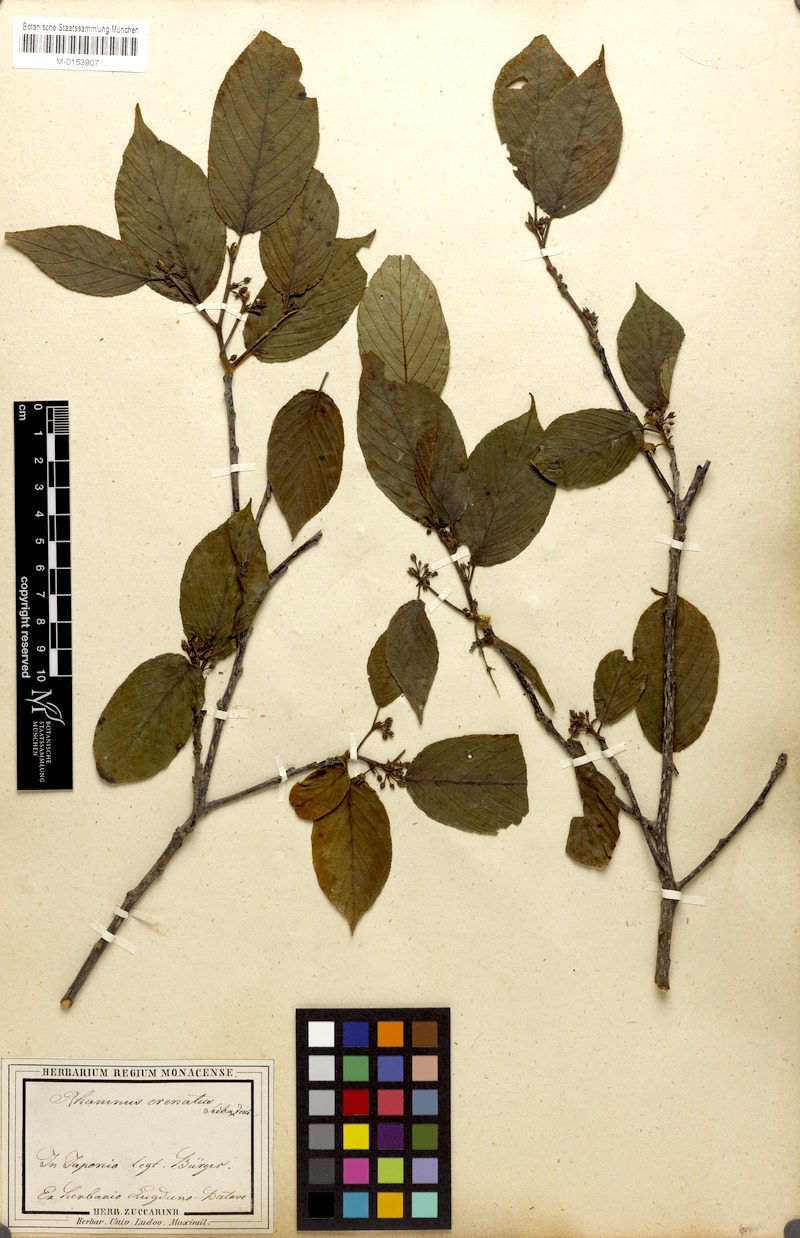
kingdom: Plantae
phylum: Tracheophyta
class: Magnoliopsida
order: Rosales
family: Rhamnaceae
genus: Frangula
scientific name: Frangula crenata
